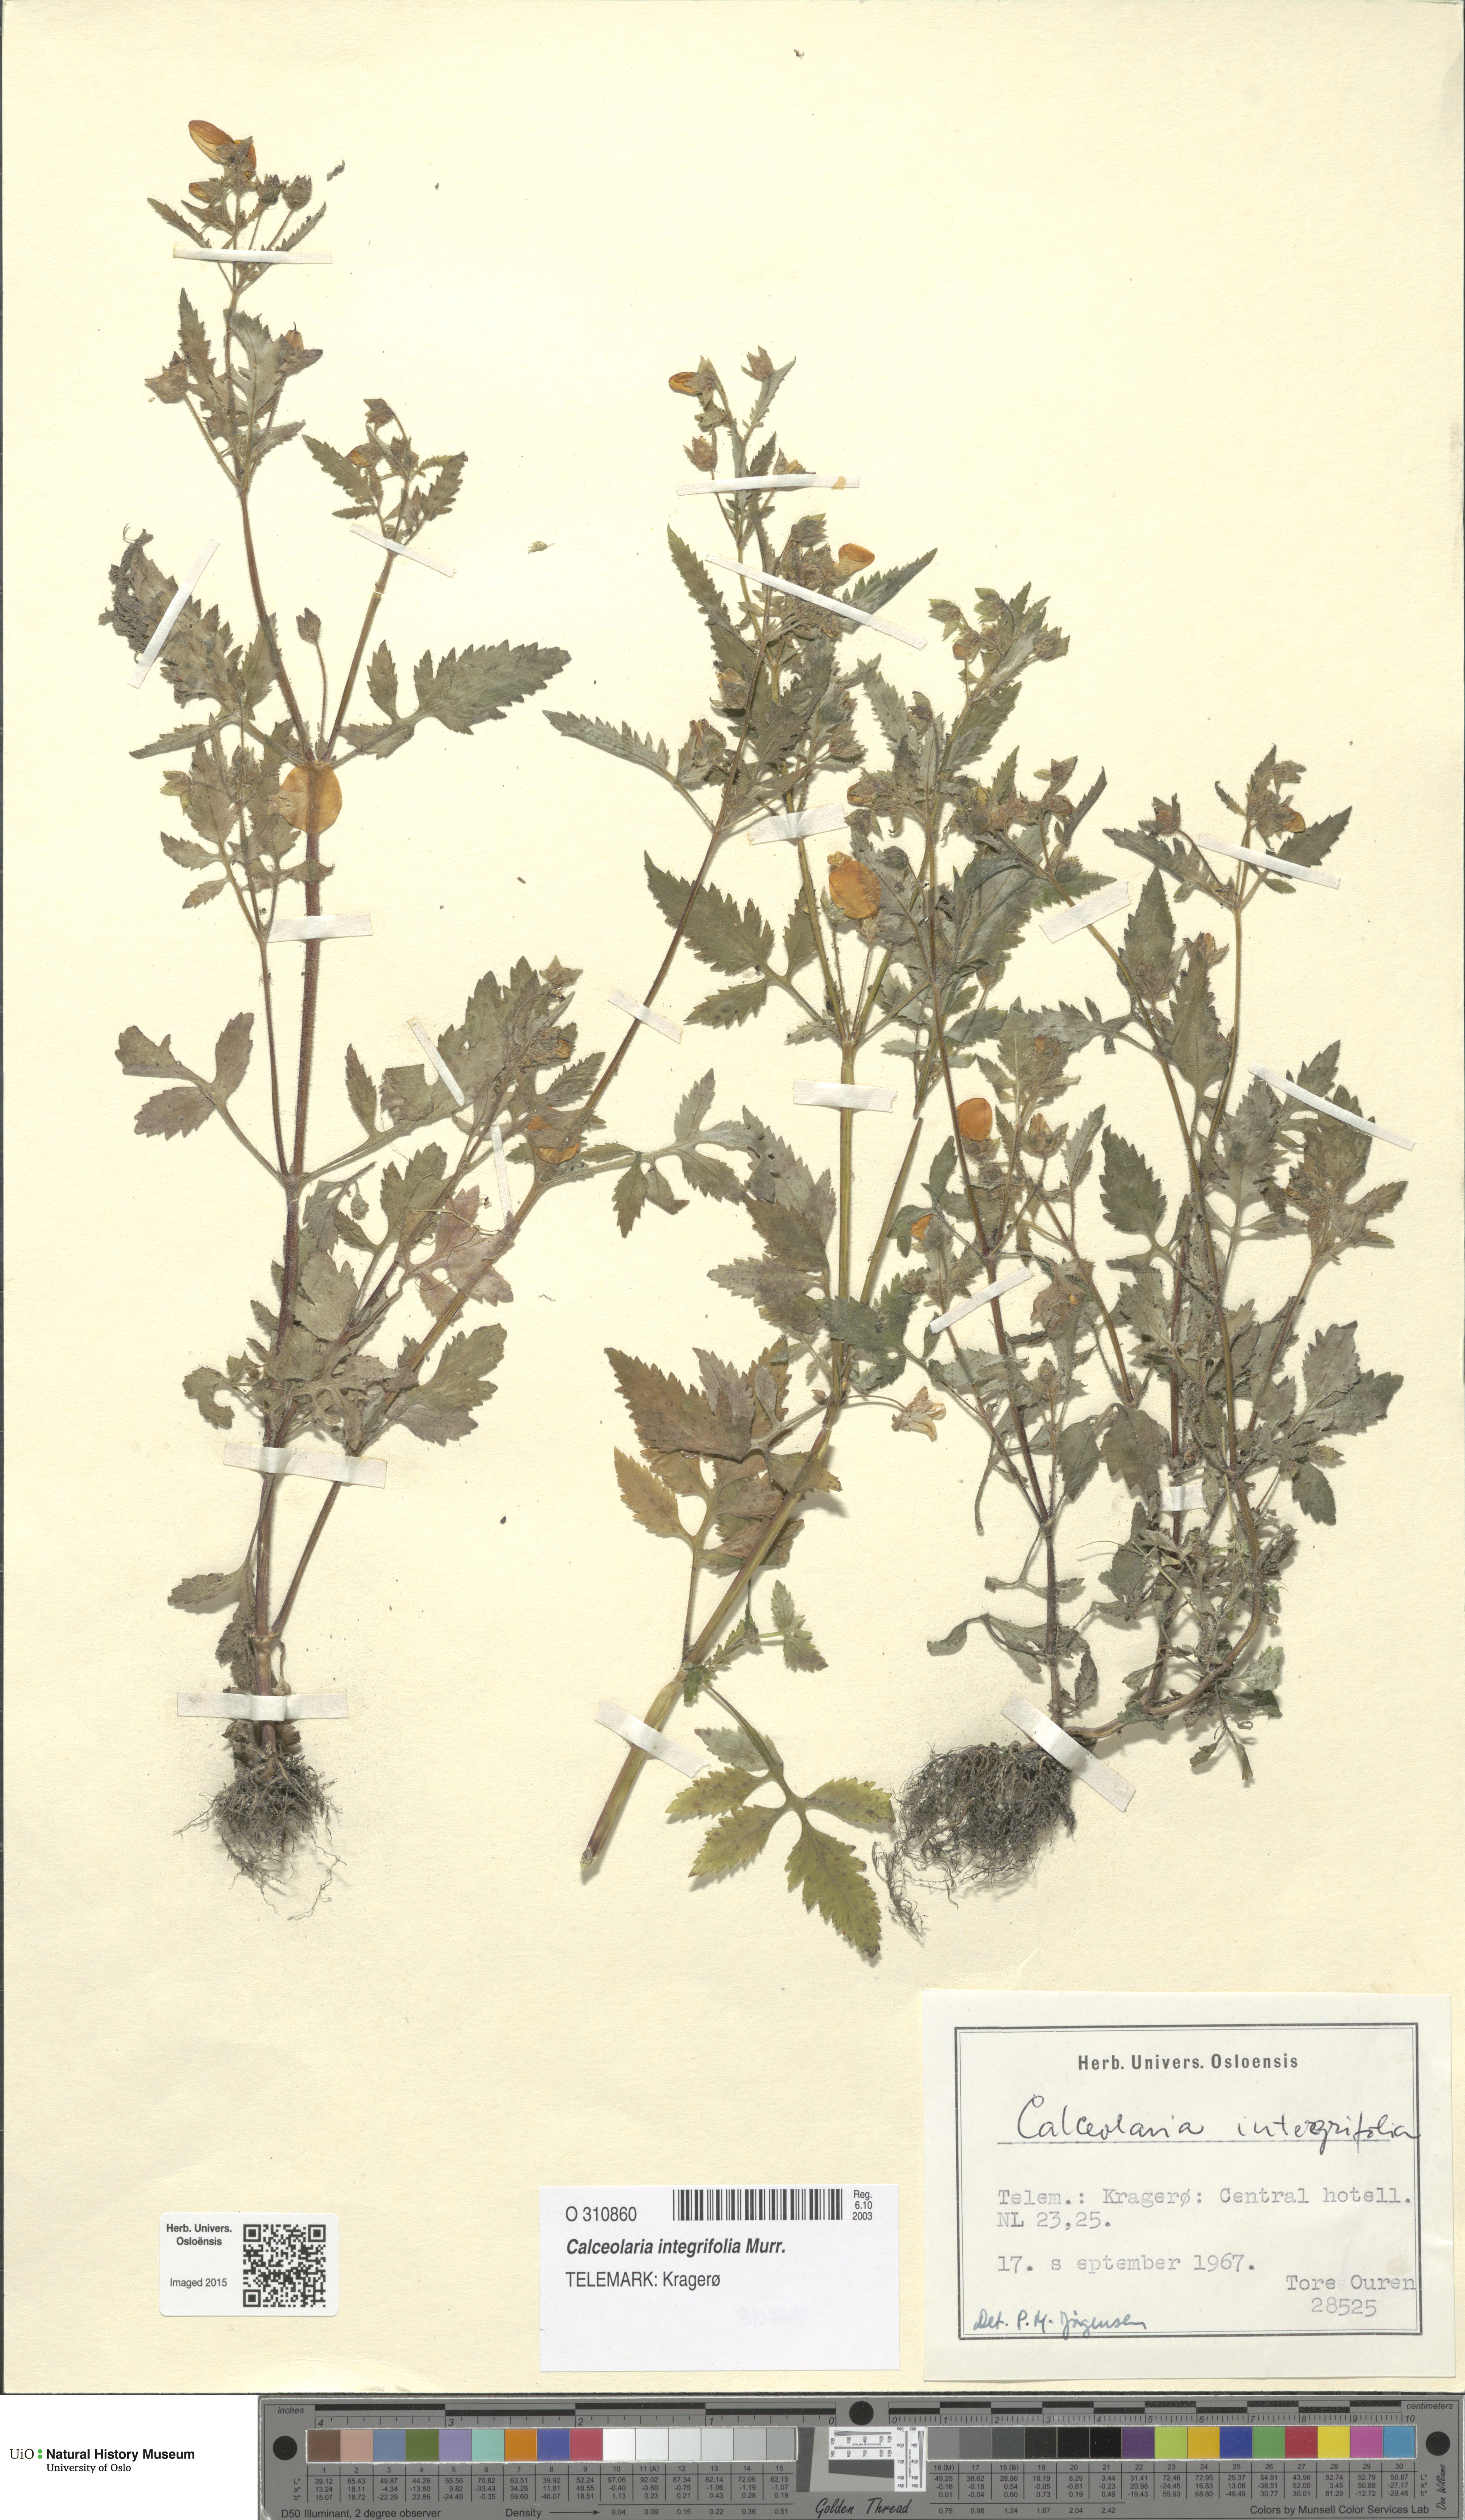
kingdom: Plantae
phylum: Tracheophyta
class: Magnoliopsida
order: Lamiales
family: Calceolariaceae
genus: Calceolaria
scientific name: Calceolaria integrifolia
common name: Bush slipperwort
